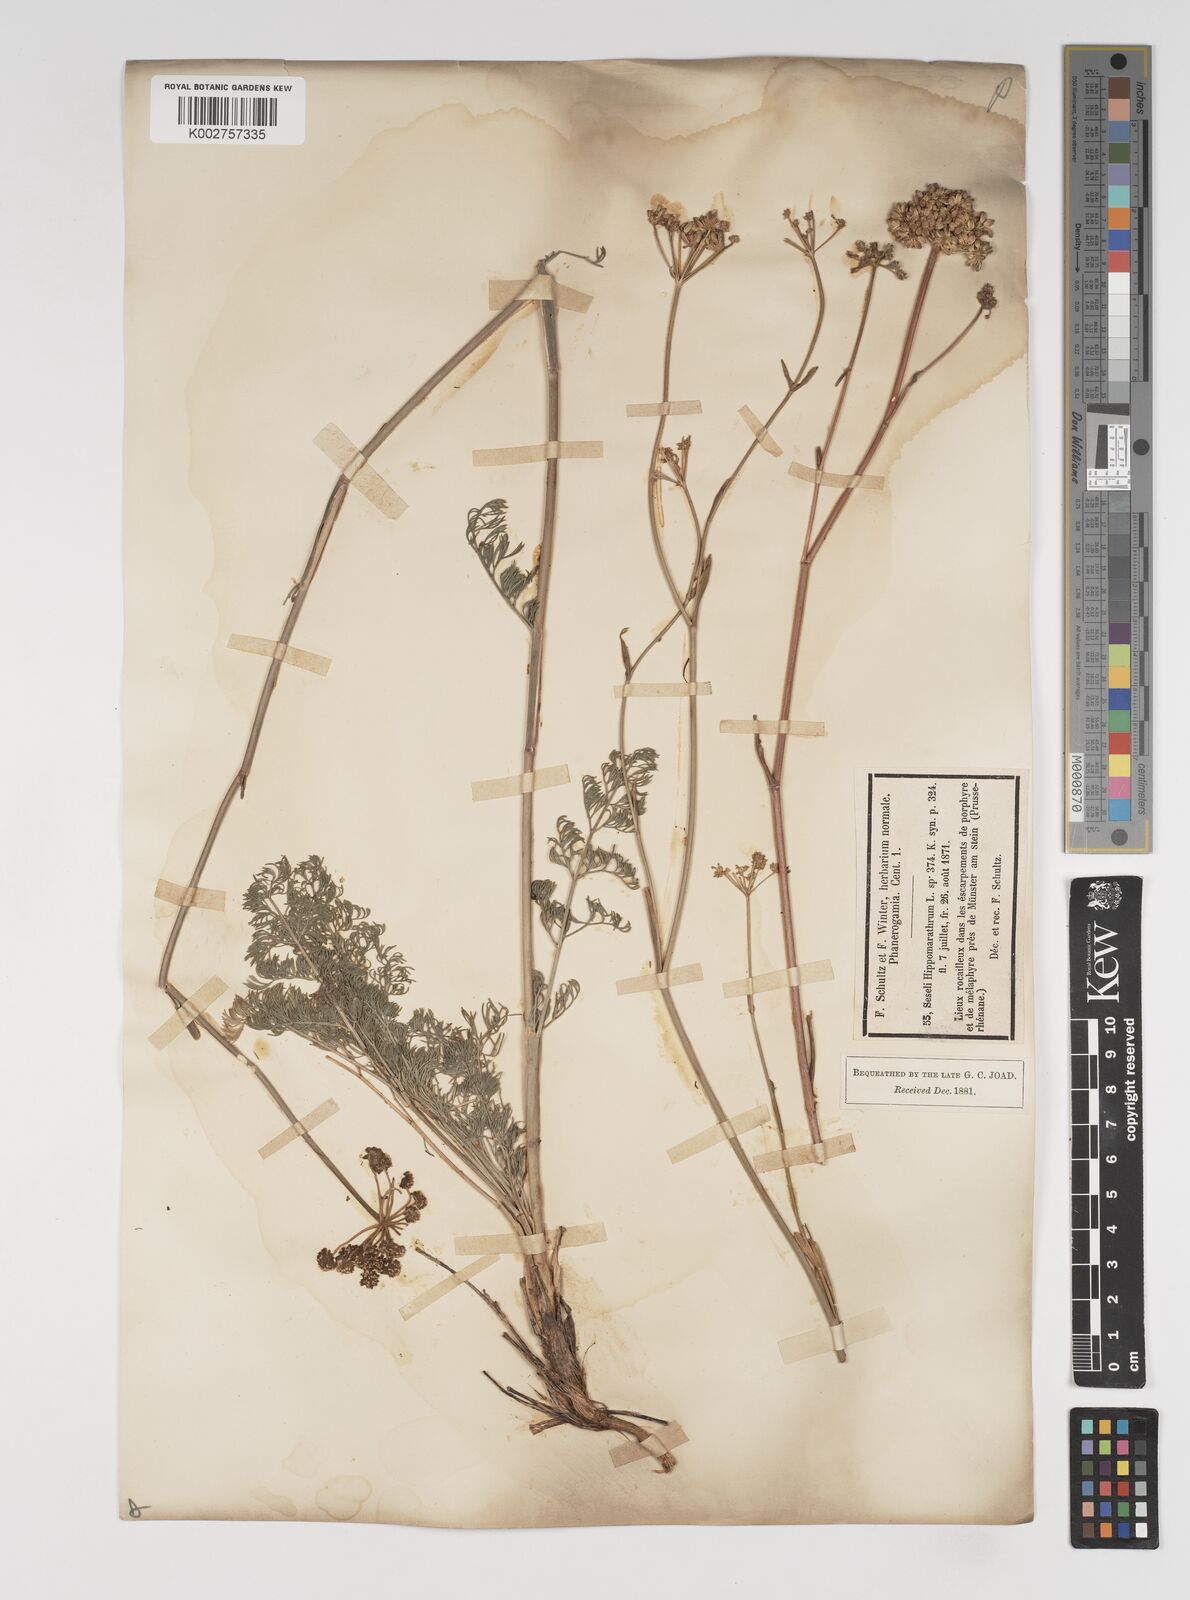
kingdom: Plantae
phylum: Tracheophyta
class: Magnoliopsida
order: Apiales
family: Apiaceae
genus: Hippomarathrum
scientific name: Hippomarathrum vulgare
